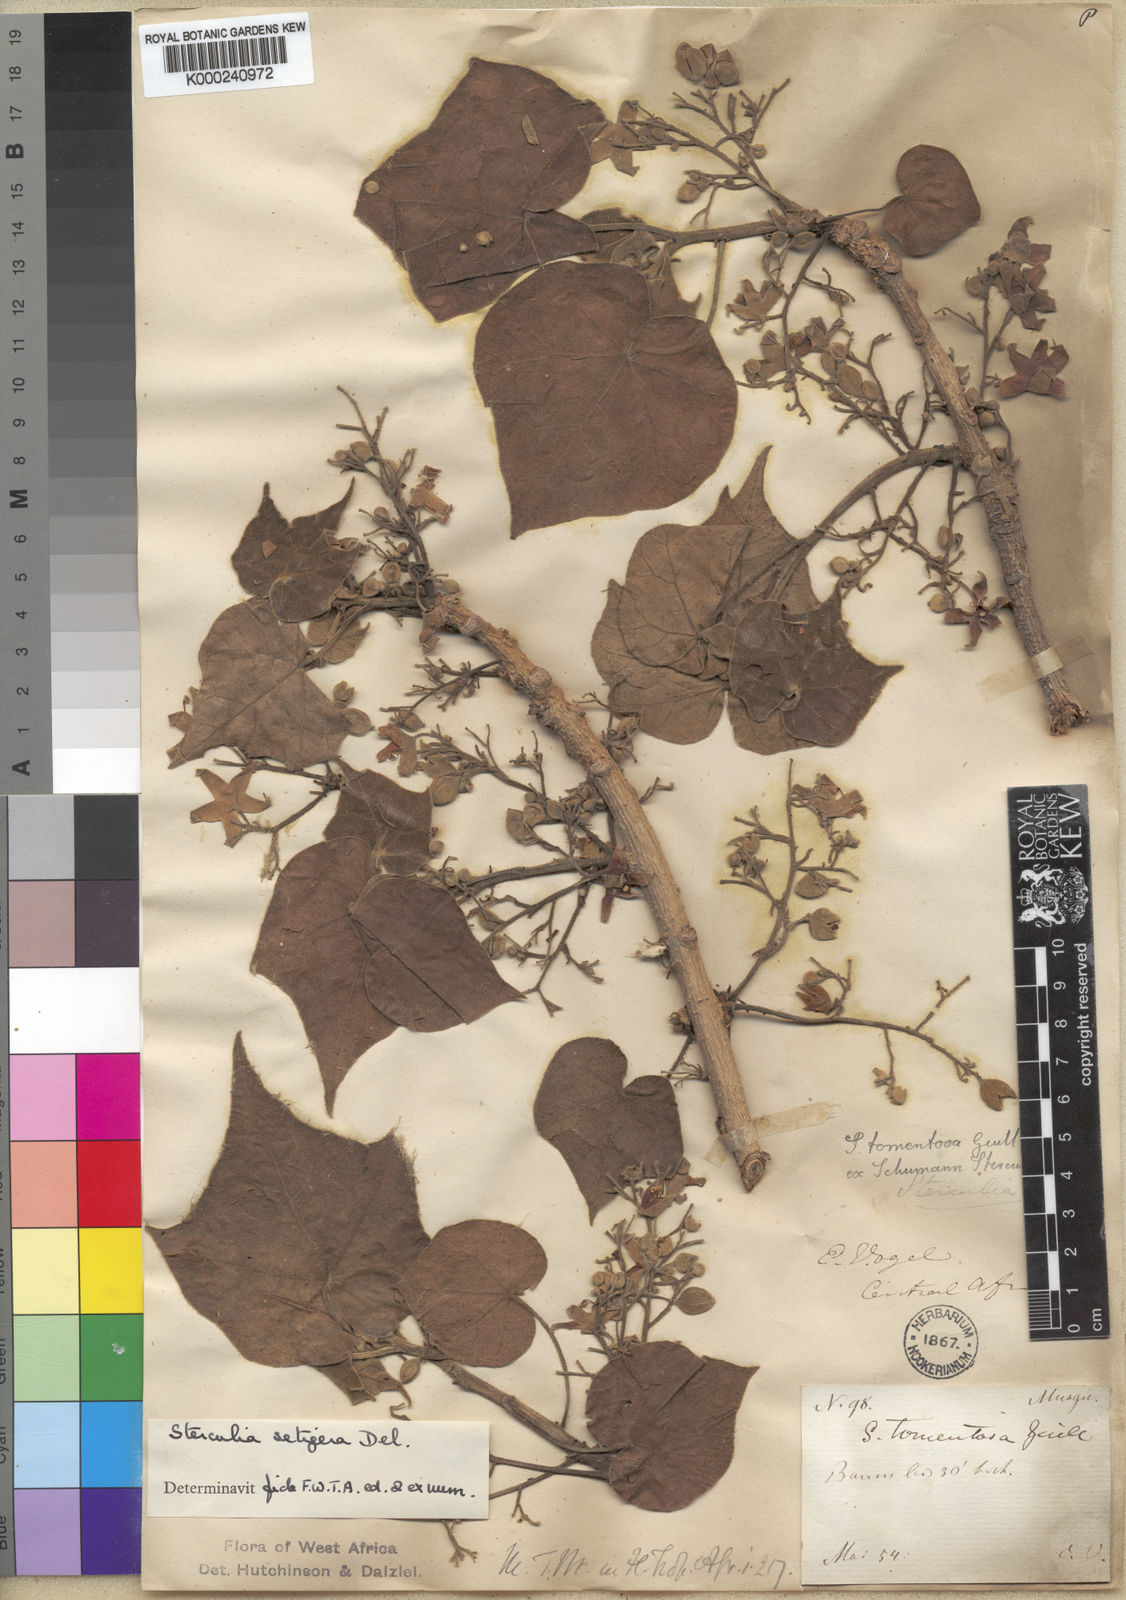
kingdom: Plantae
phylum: Tracheophyta
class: Magnoliopsida
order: Malvales
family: Malvaceae
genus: Sterculia
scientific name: Sterculia setigera
